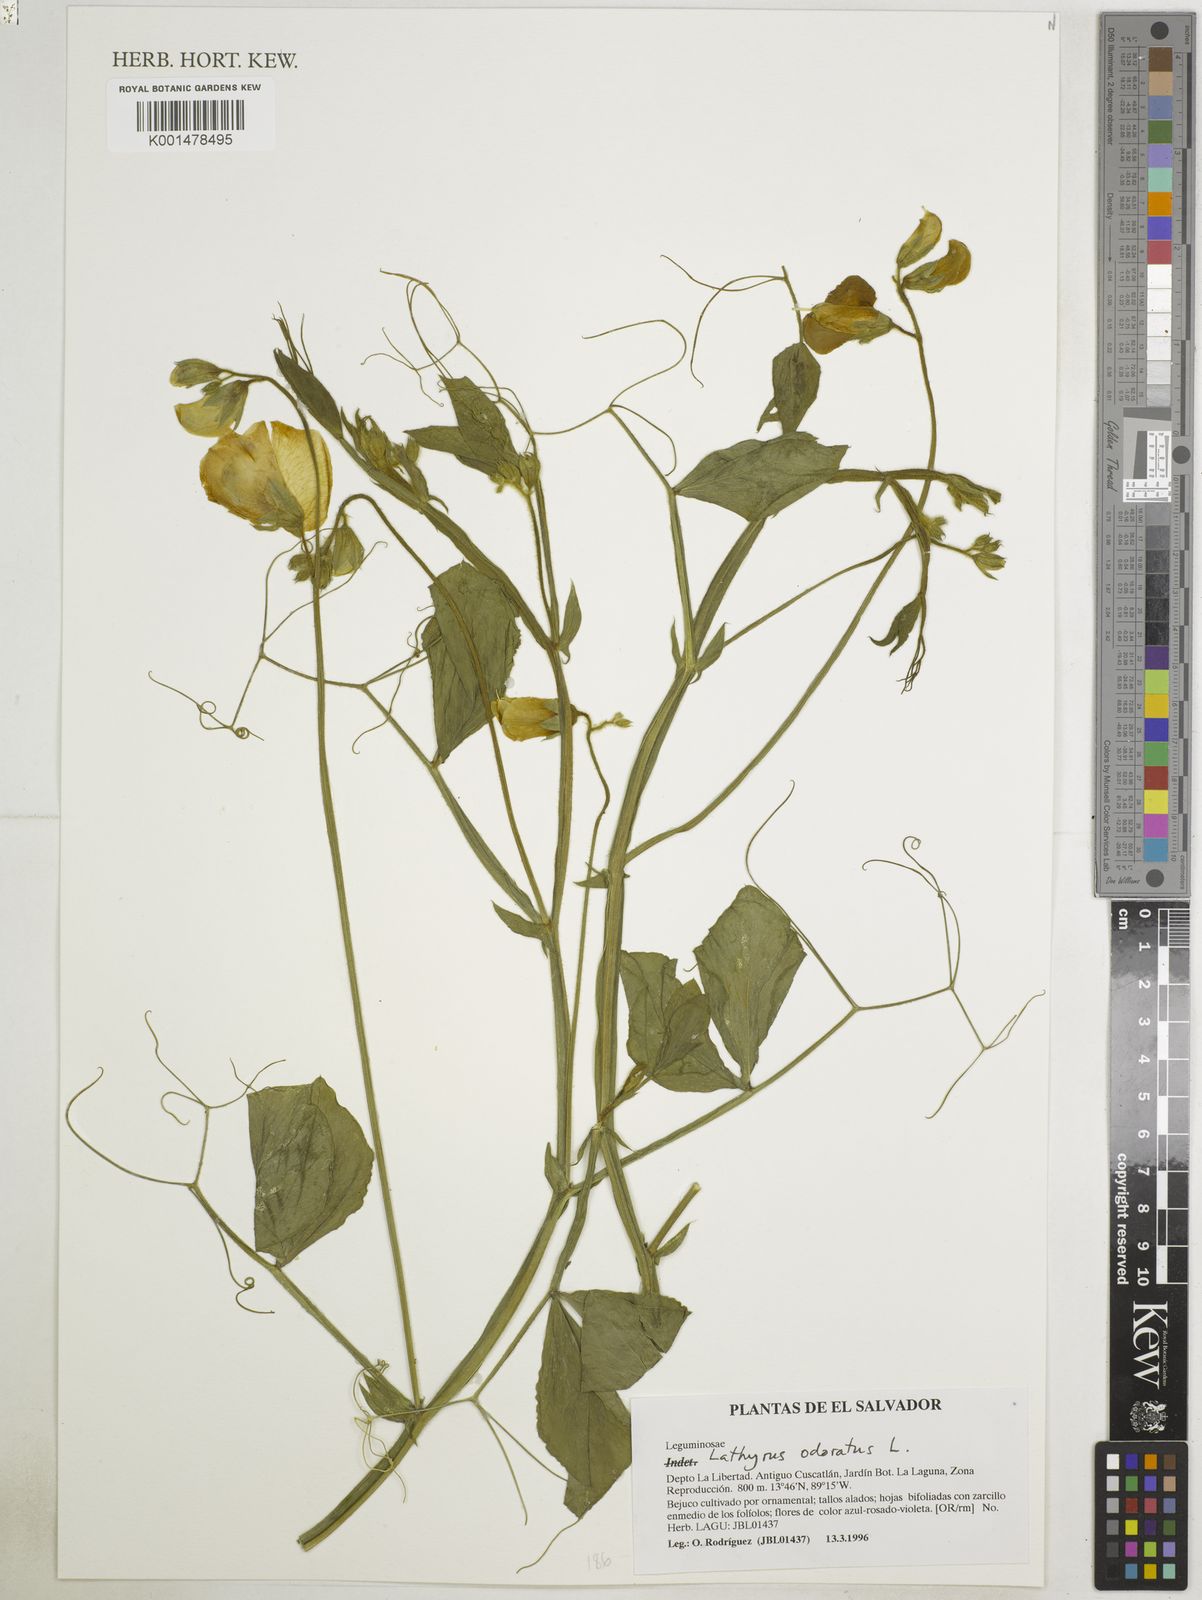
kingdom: Plantae
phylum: Tracheophyta
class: Magnoliopsida
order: Fabales
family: Fabaceae
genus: Lathyrus
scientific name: Lathyrus odoratus
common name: Sweet pea
